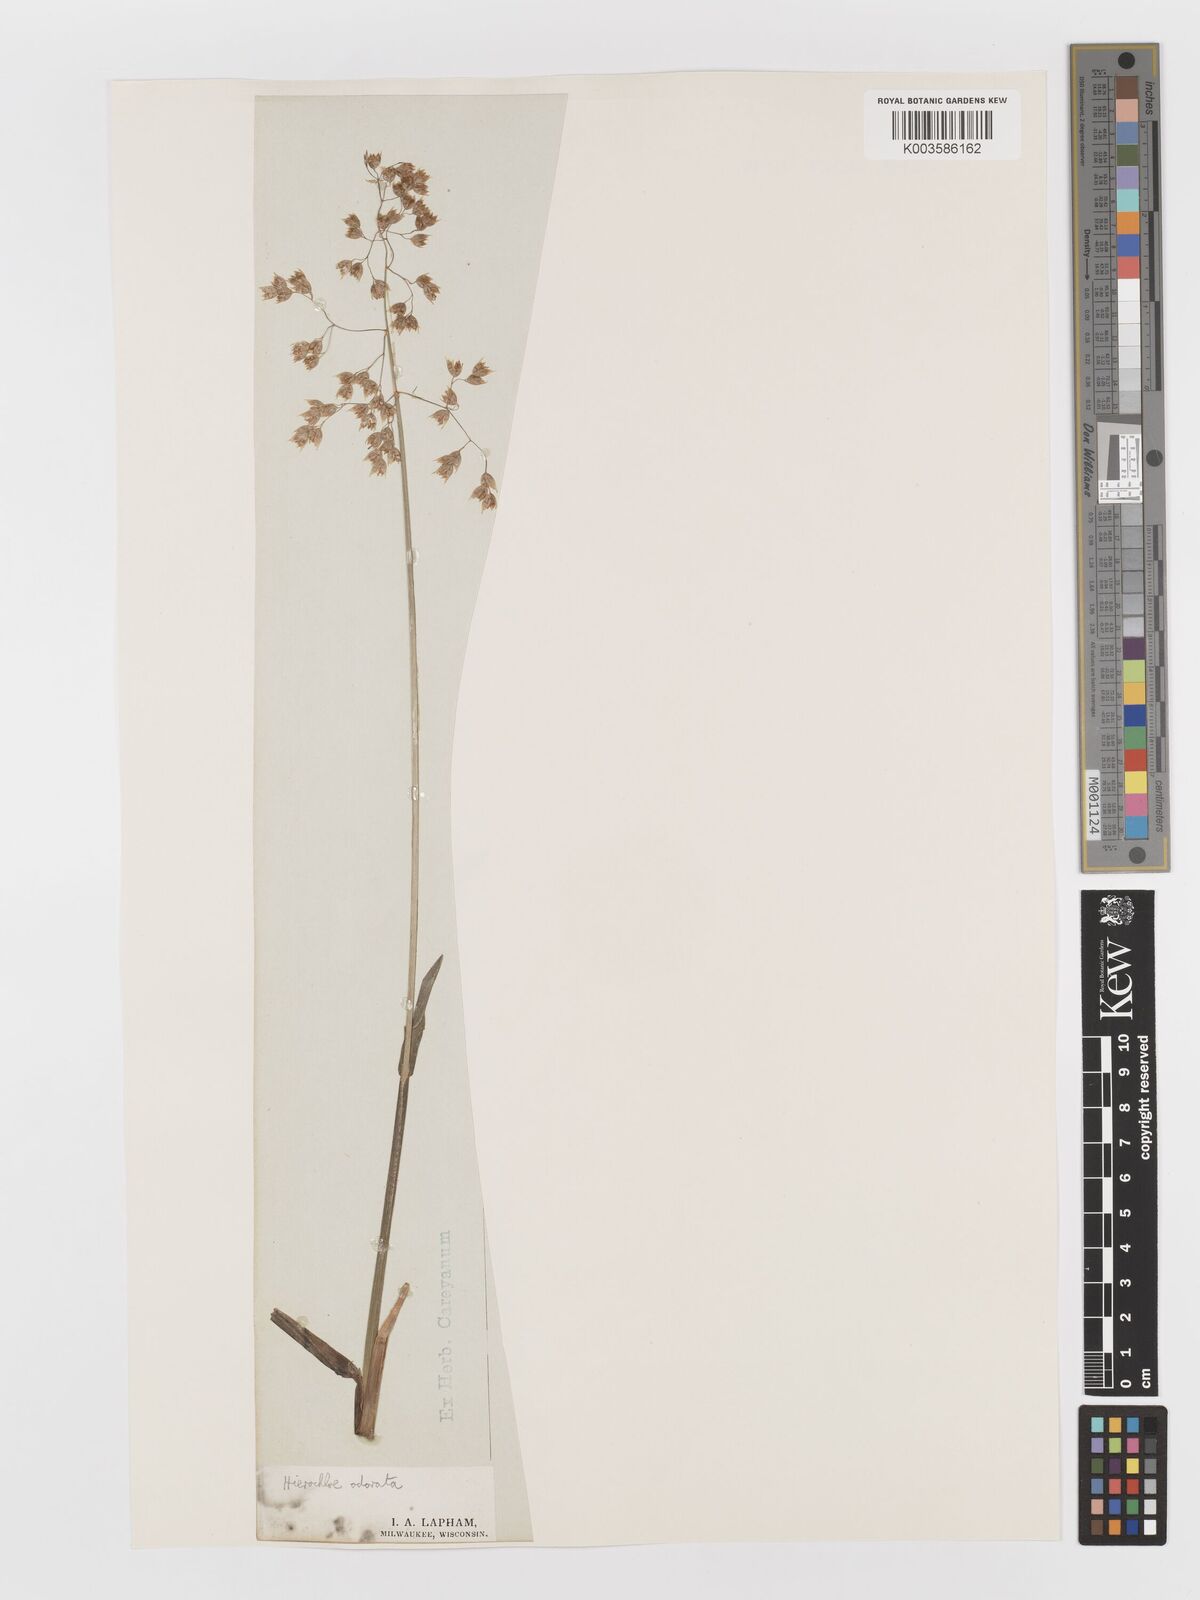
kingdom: Plantae
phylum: Tracheophyta
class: Liliopsida
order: Poales
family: Poaceae
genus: Anthoxanthum
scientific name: Anthoxanthum nitens
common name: Holy grass
